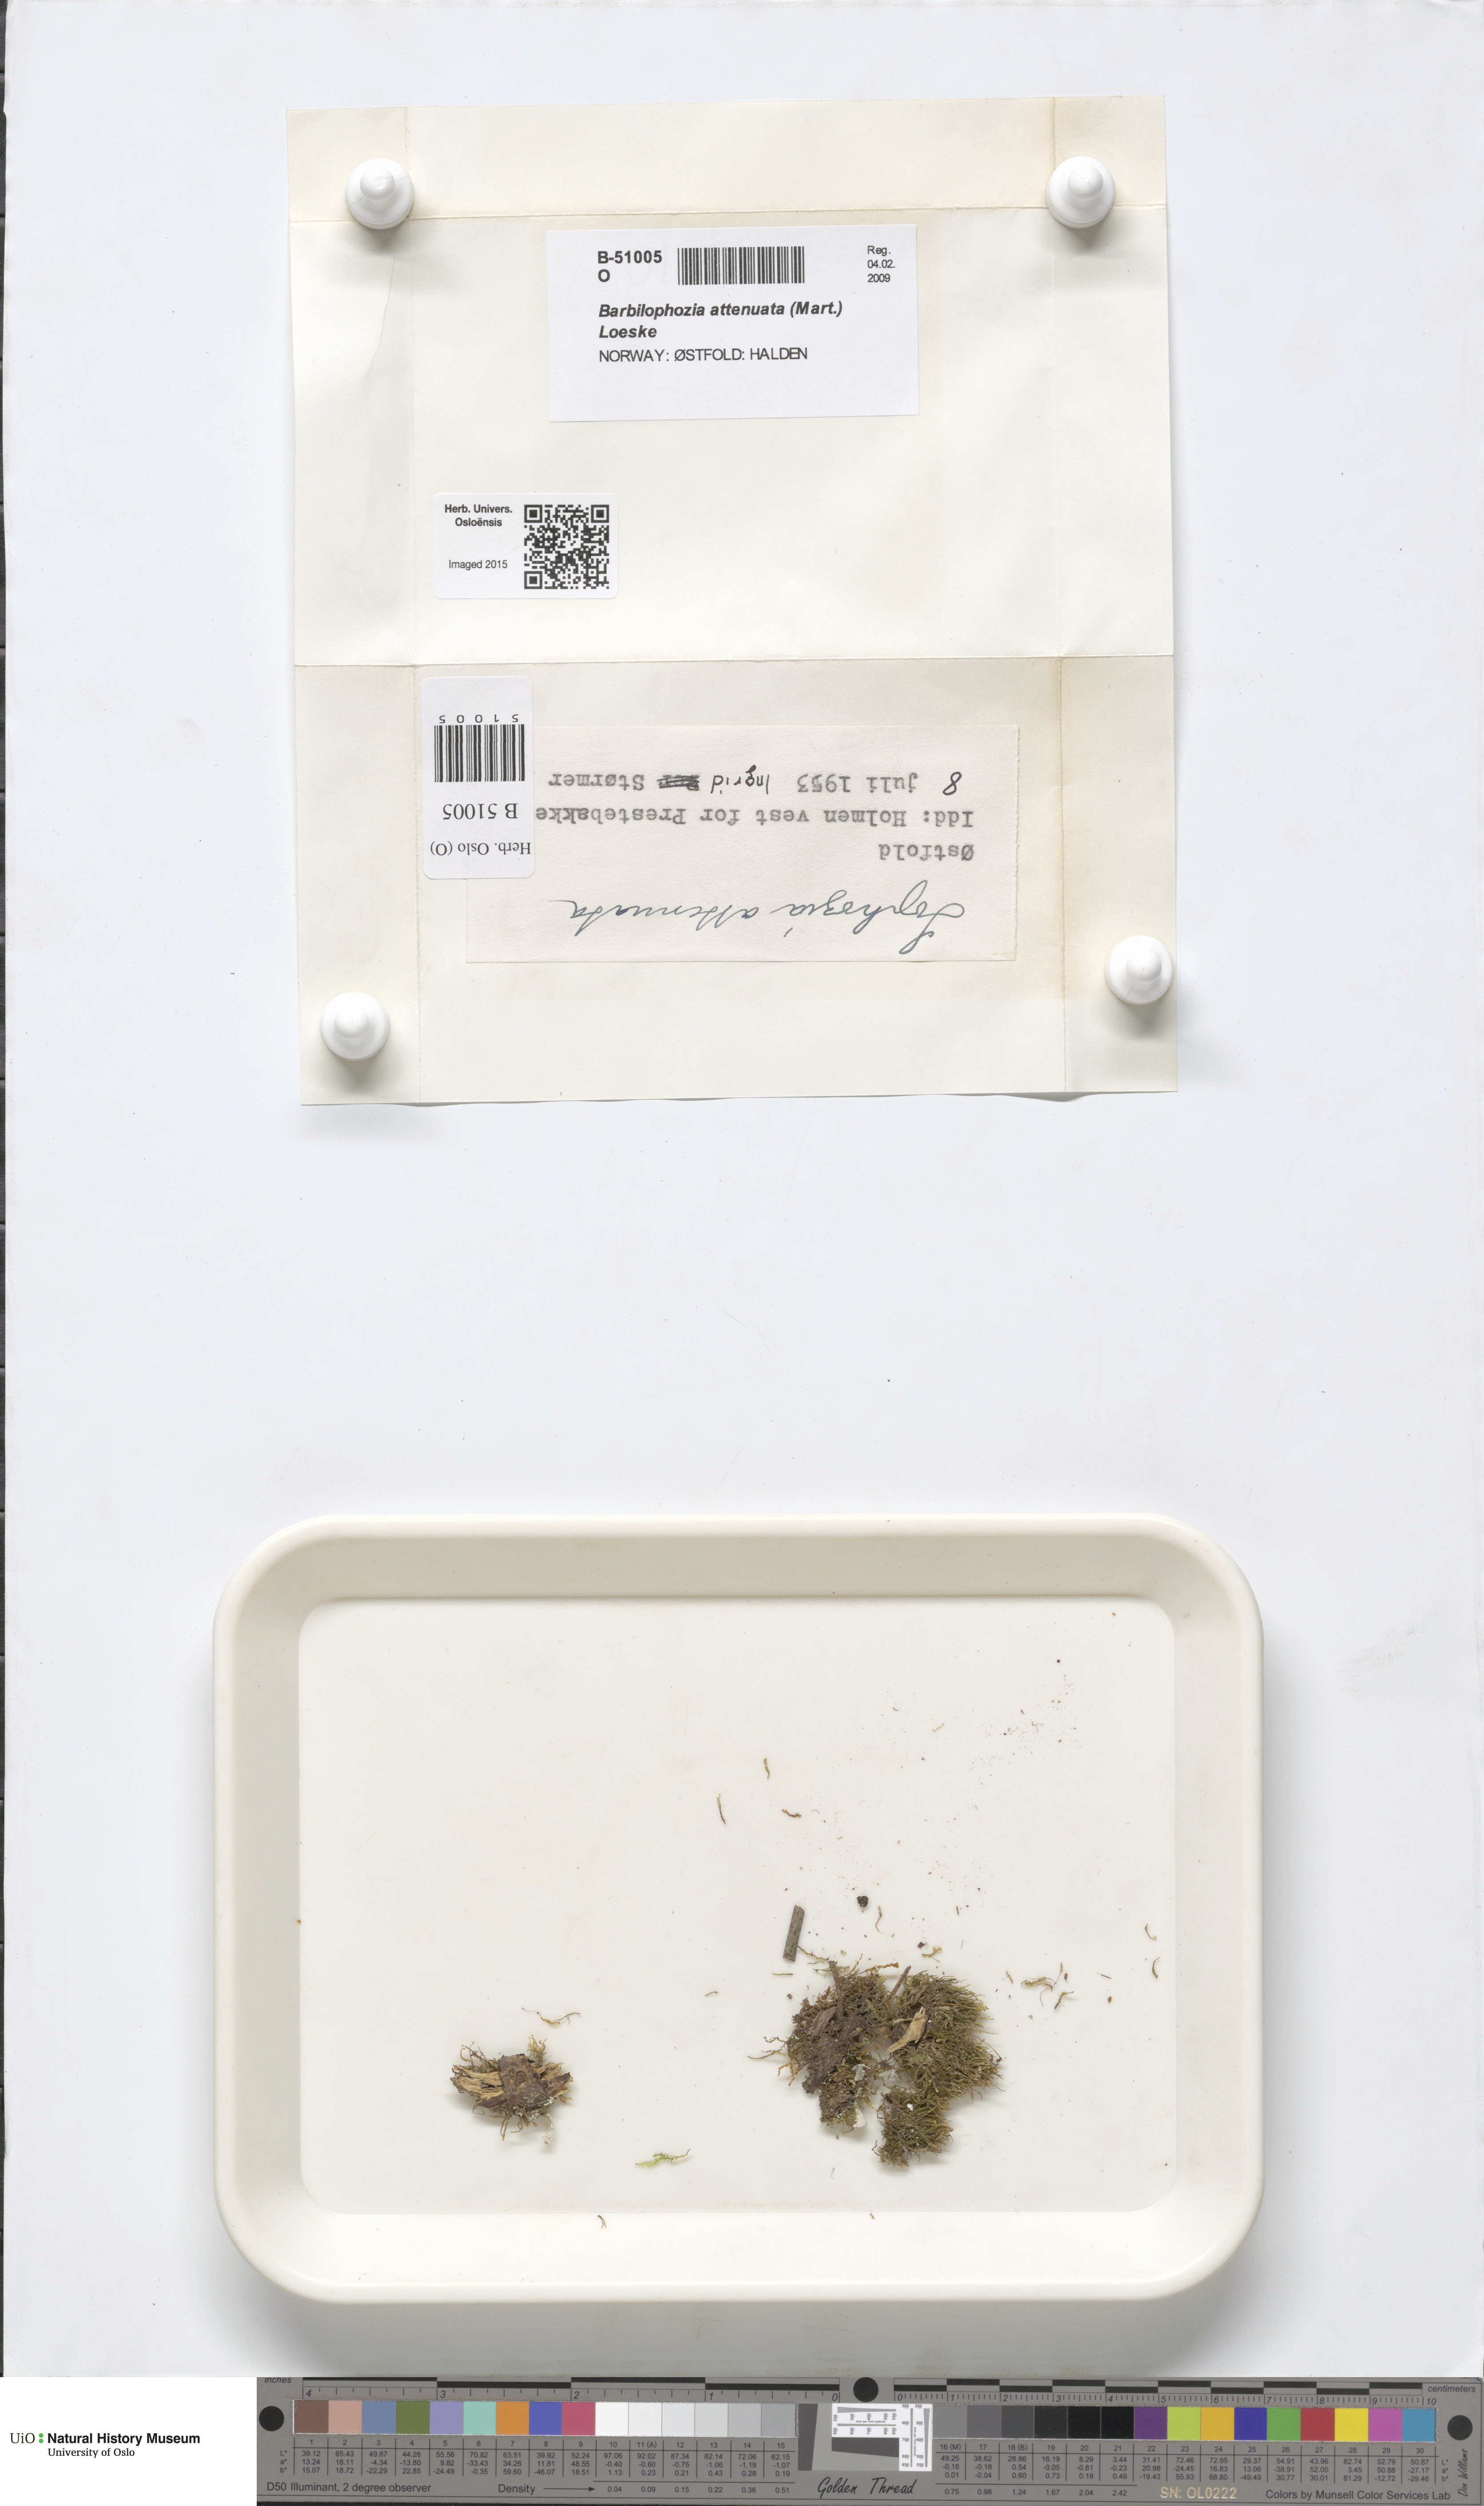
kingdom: Plantae
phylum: Marchantiophyta
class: Jungermanniopsida
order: Jungermanniales
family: Anastrophyllaceae
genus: Neoorthocaulis
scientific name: Neoorthocaulis attenuatus
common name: Trunk pawwort
